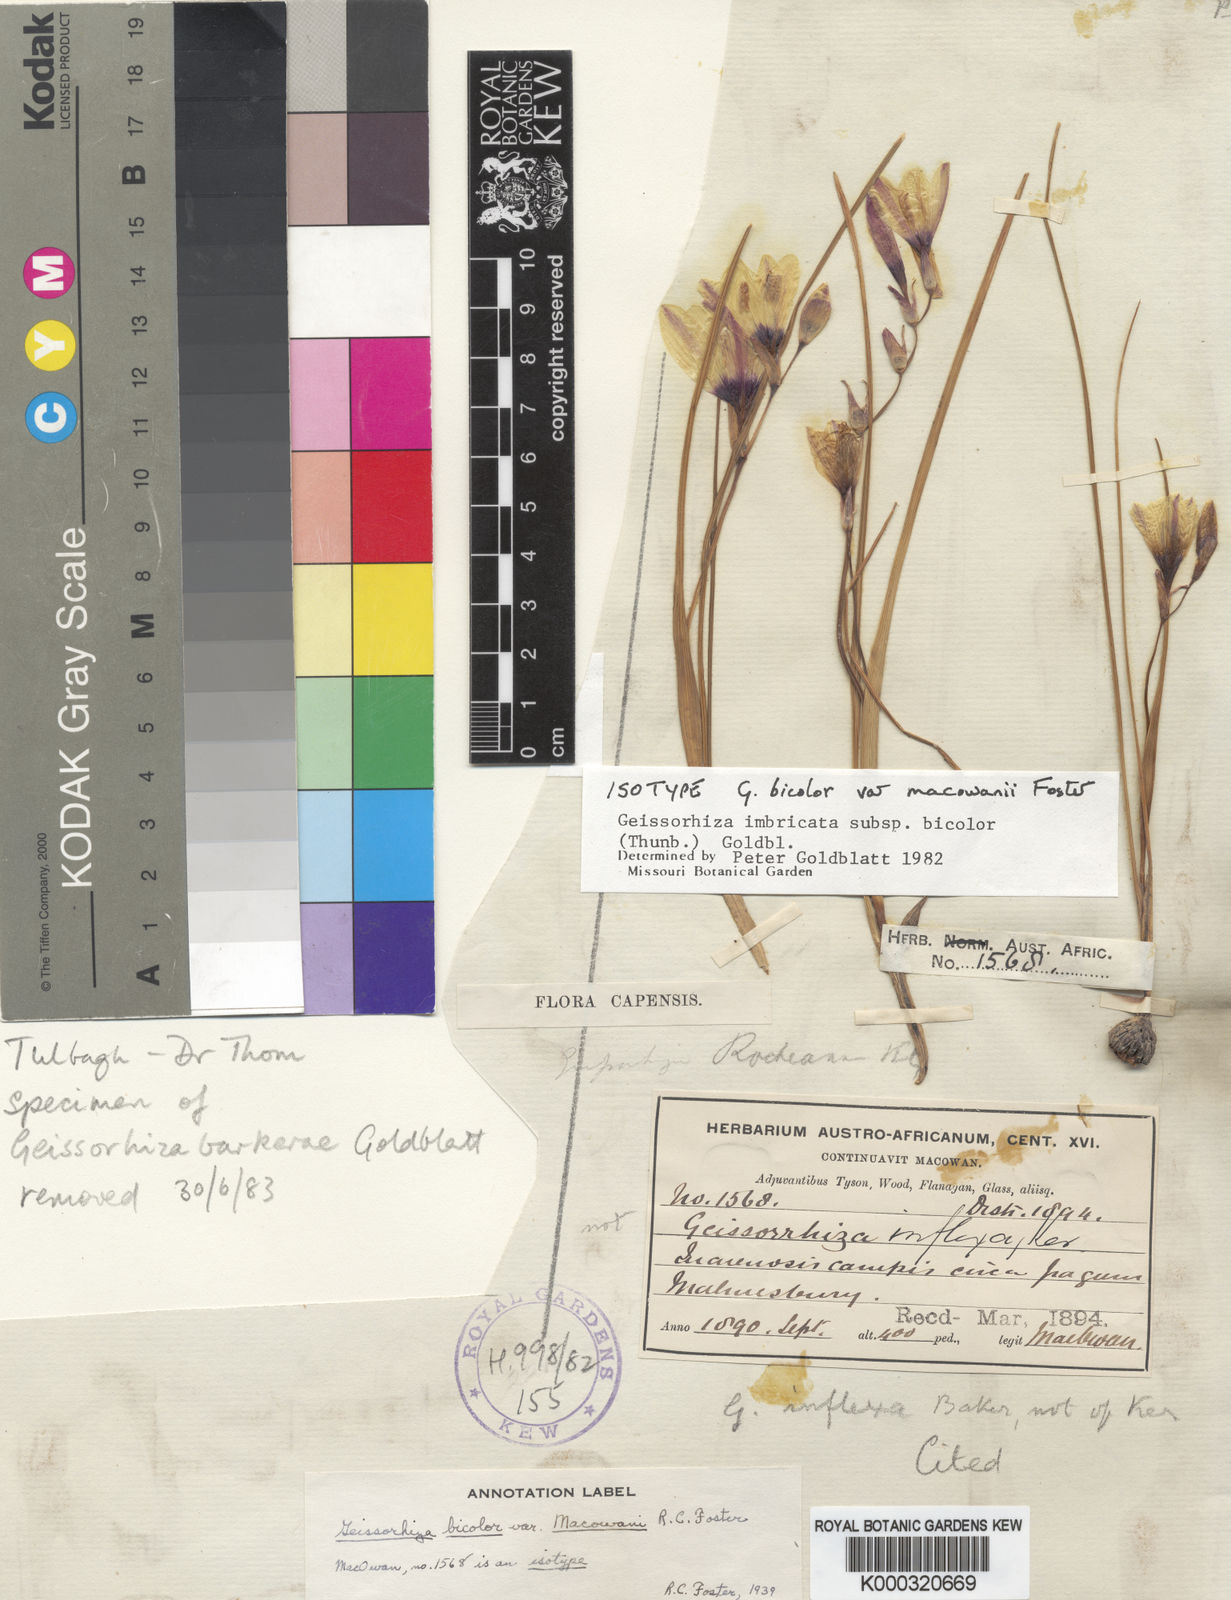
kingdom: Plantae
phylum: Tracheophyta
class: Liliopsida
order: Asparagales
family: Iridaceae
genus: Geissorhiza
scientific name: Geissorhiza imbricata
